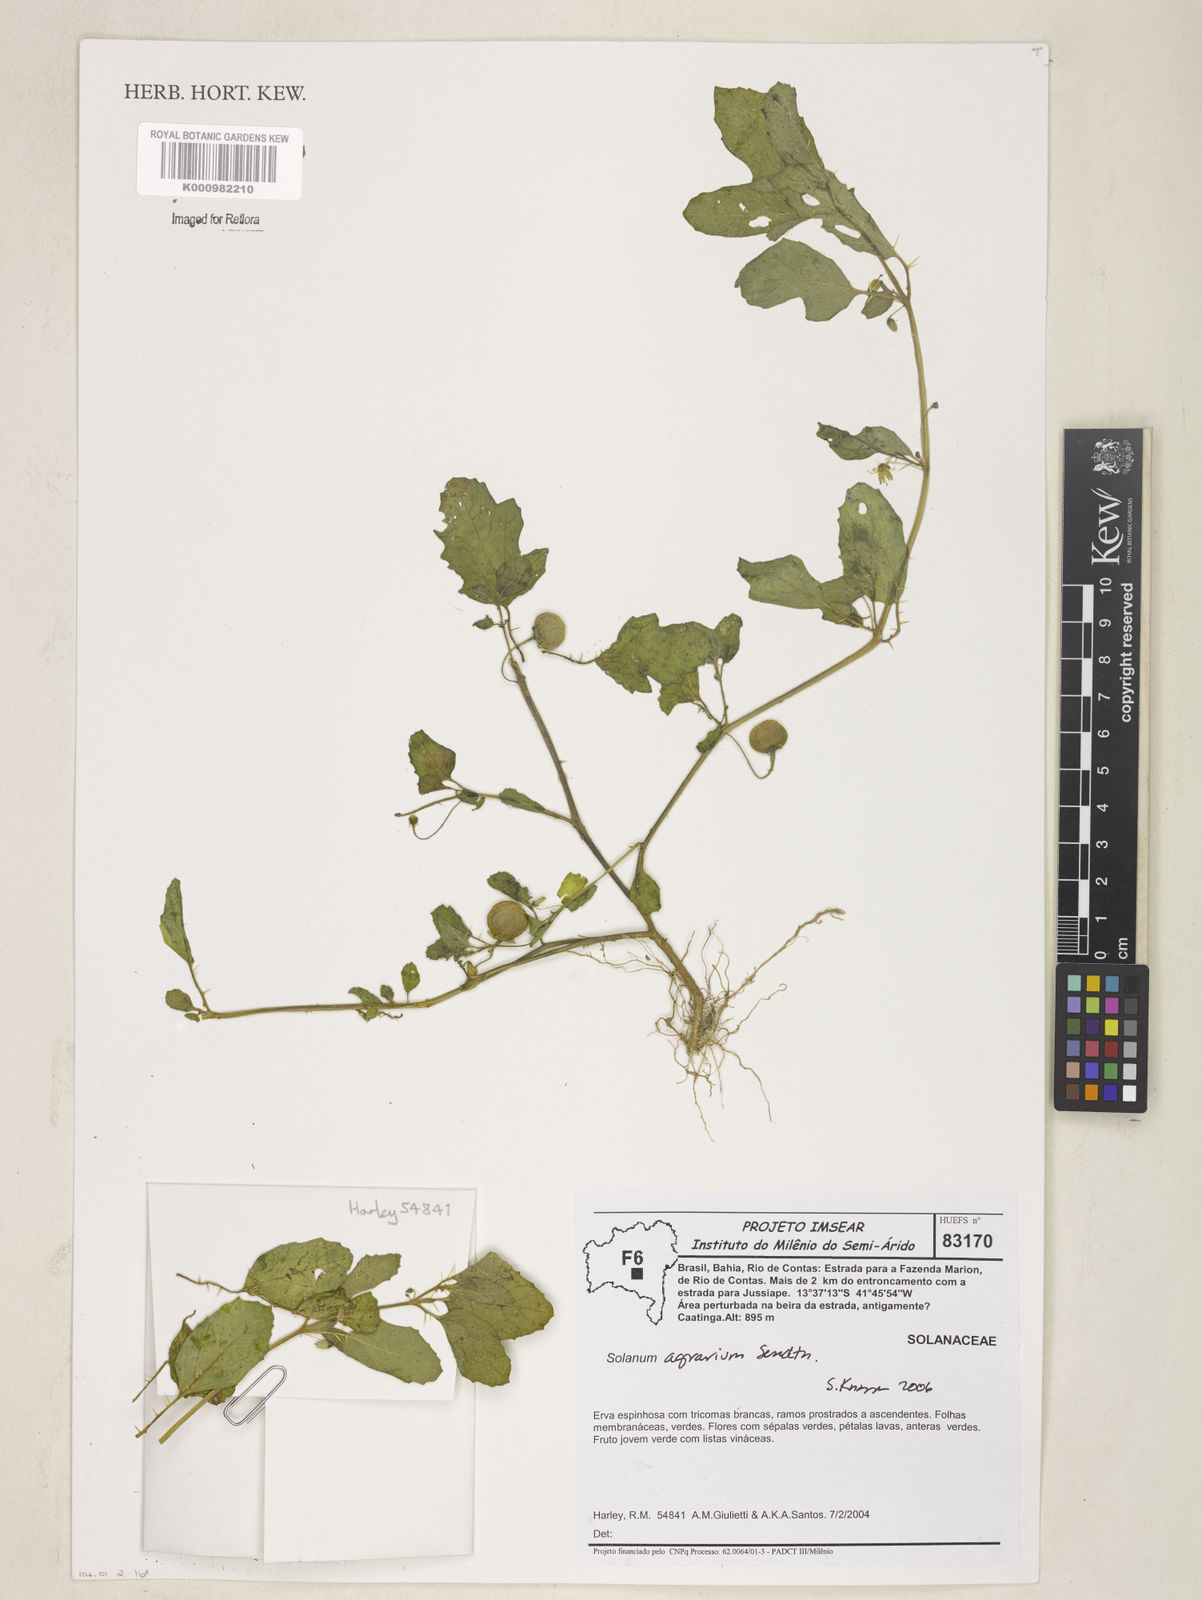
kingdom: Plantae
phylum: Tracheophyta
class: Magnoliopsida
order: Solanales
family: Solanaceae
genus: Solanum
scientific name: Solanum agrarium
